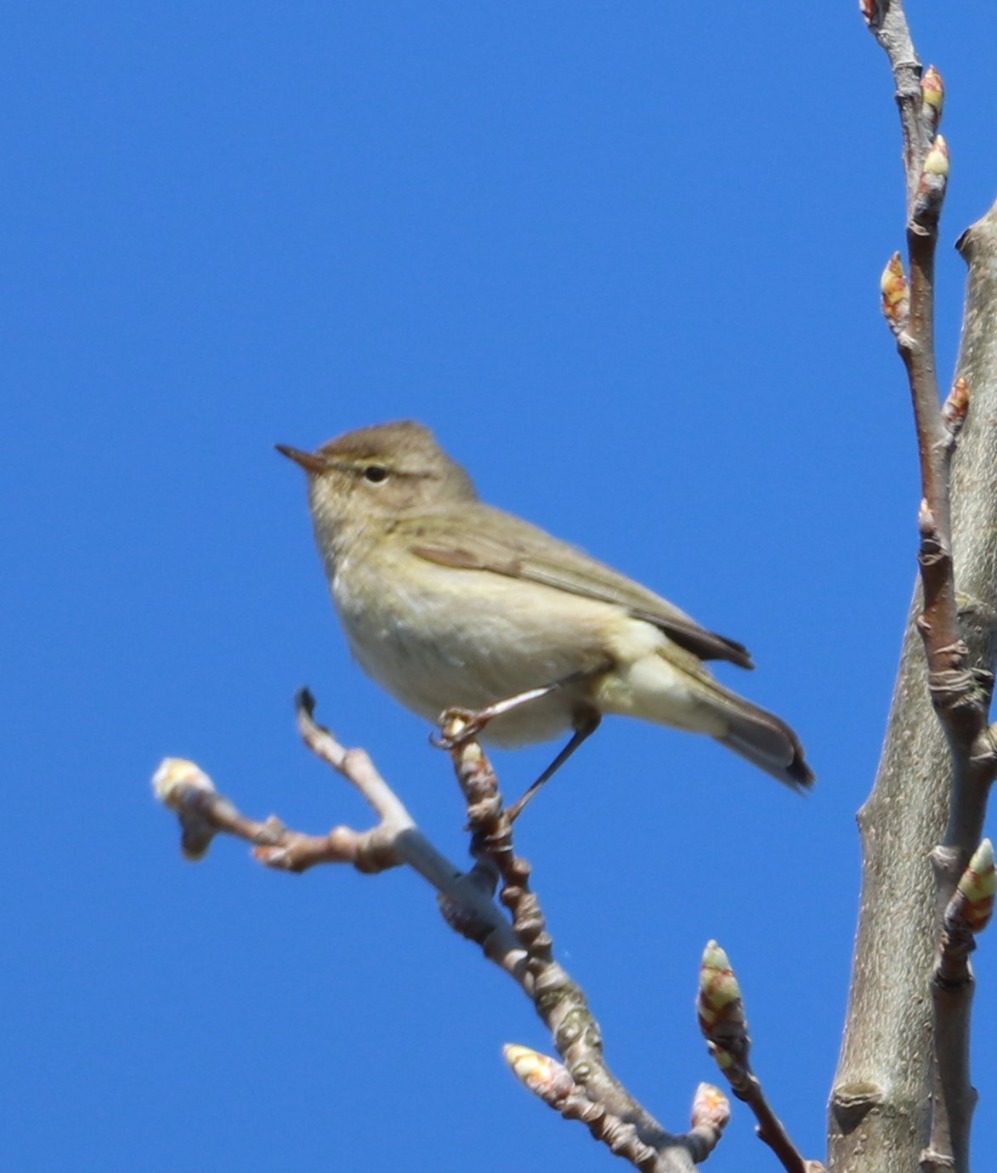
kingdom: Animalia
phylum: Chordata
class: Aves
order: Passeriformes
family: Phylloscopidae
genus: Phylloscopus
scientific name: Phylloscopus collybita
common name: Gransanger
